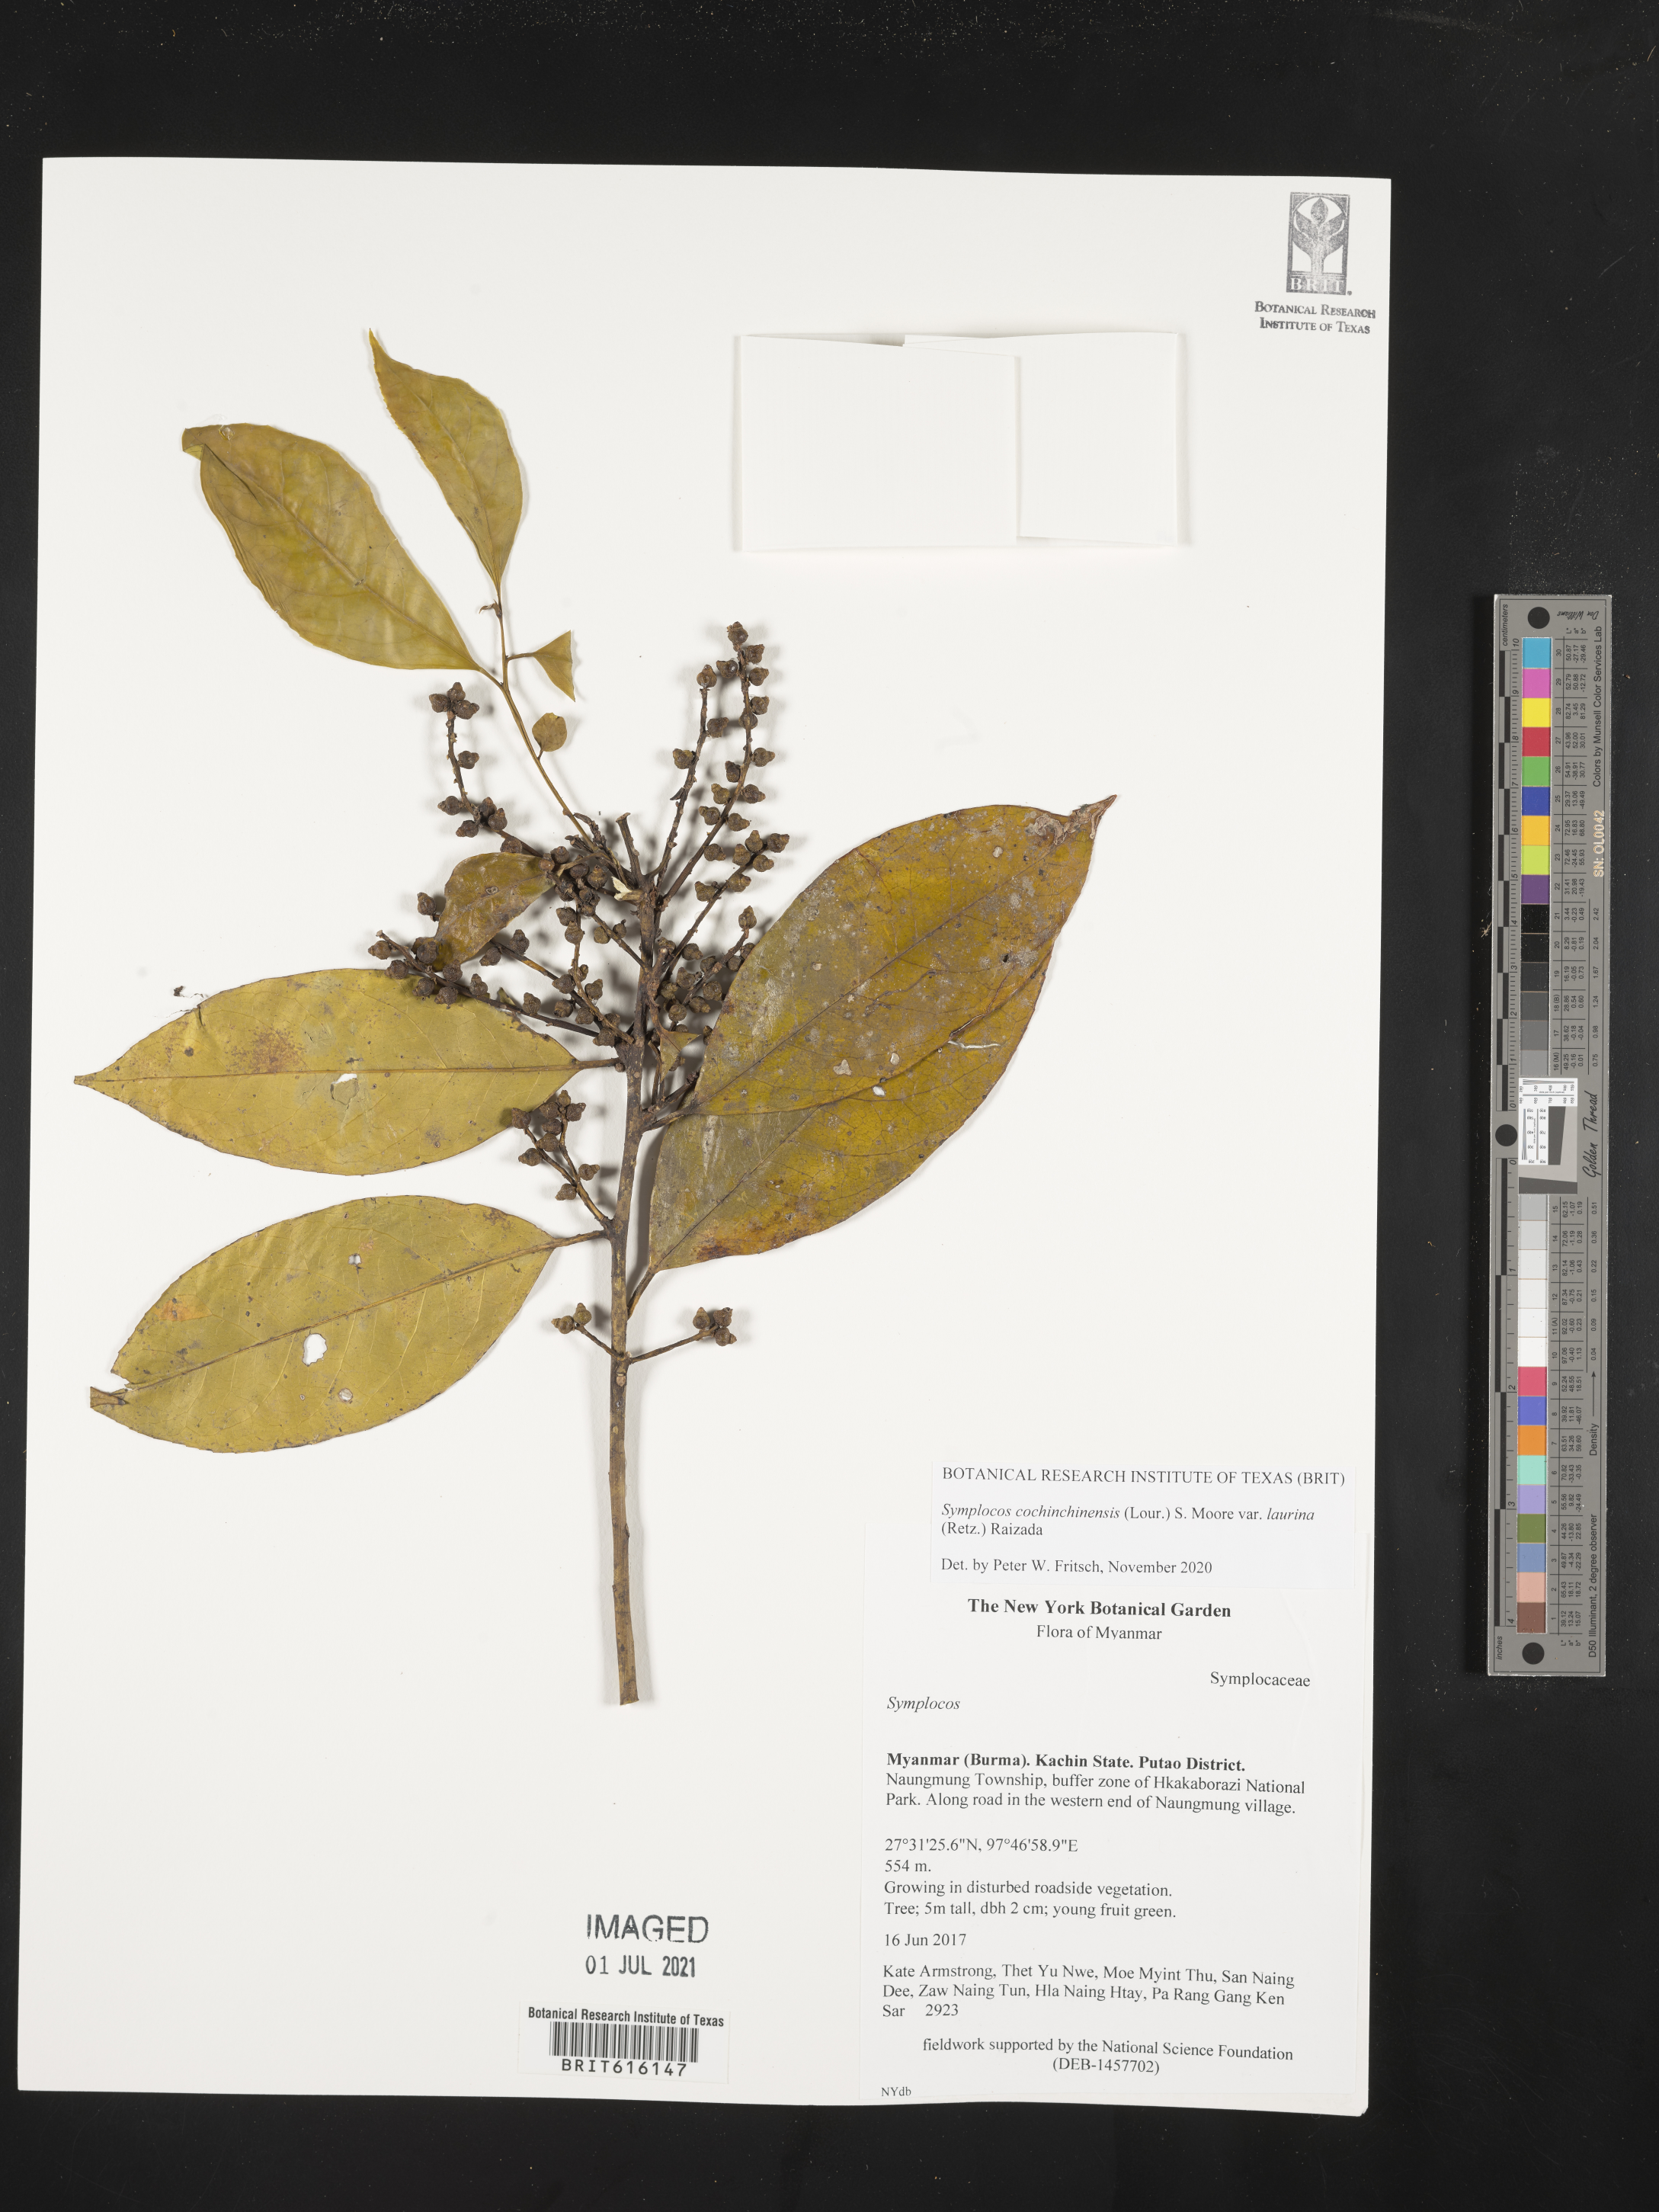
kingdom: Plantae
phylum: Tracheophyta
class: Magnoliopsida
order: Ericales
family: Symplocaceae
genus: Symplocos
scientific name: Symplocos acuminata
